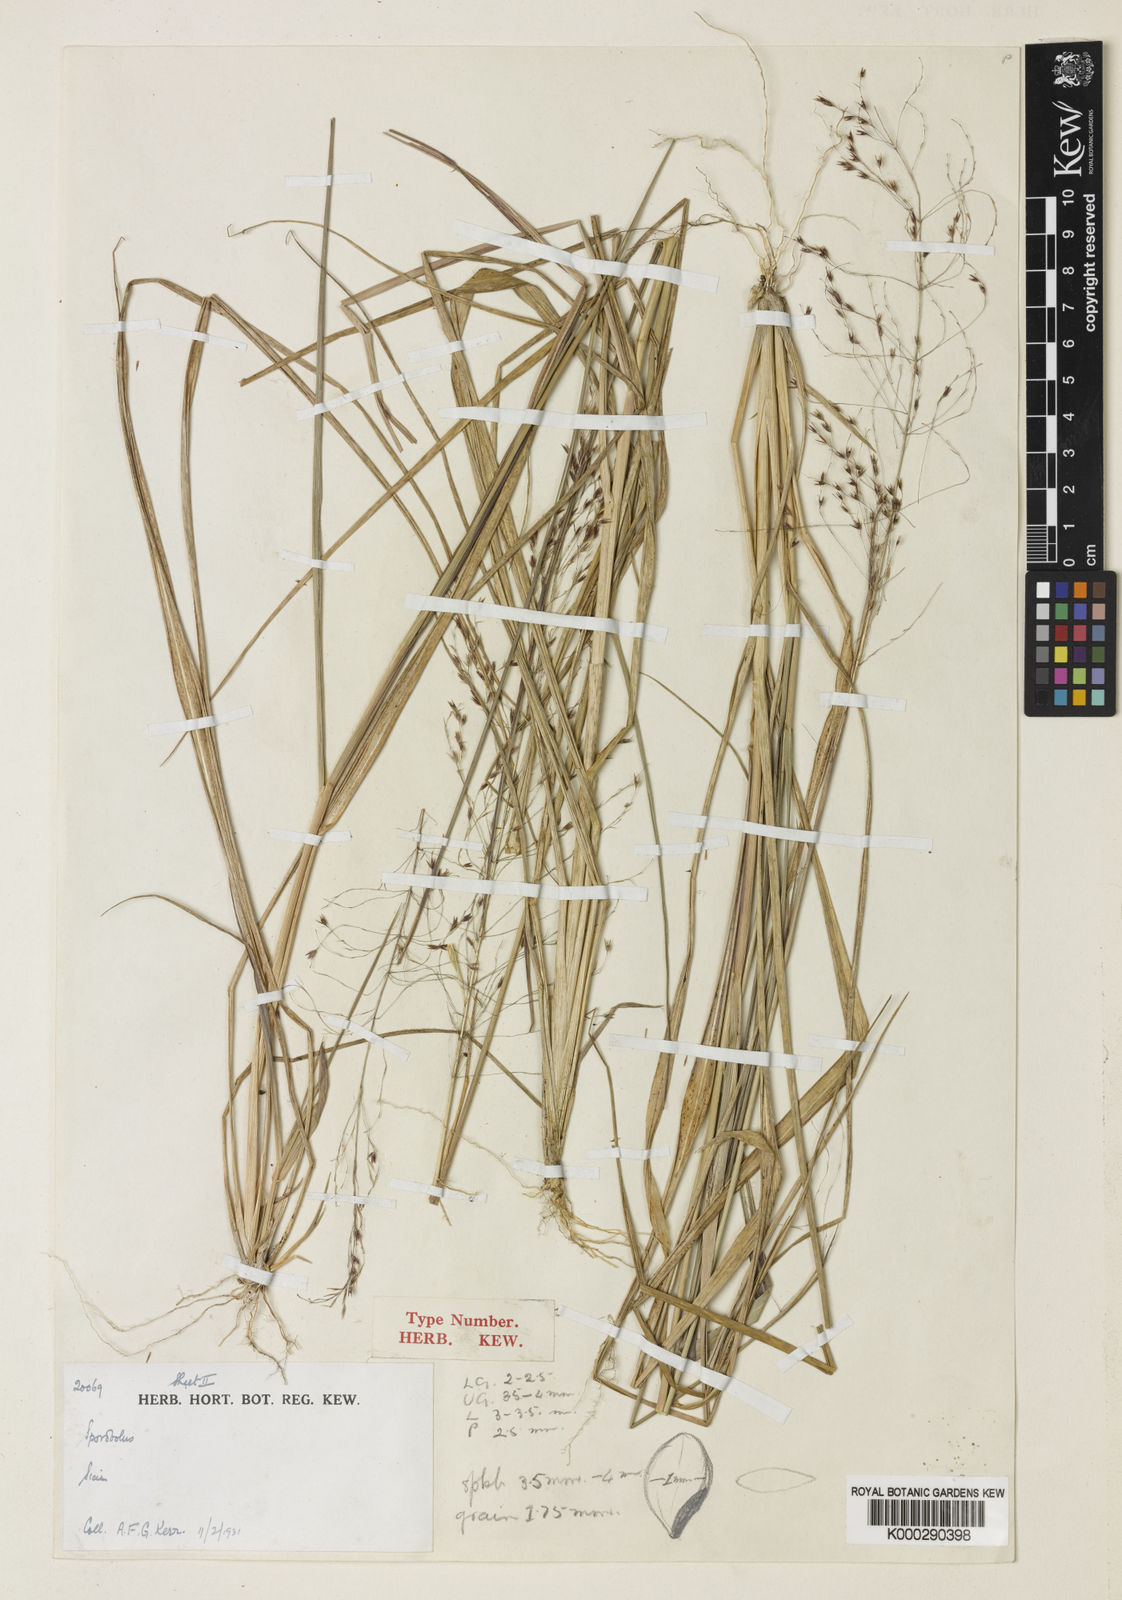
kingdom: Plantae
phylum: Tracheophyta
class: Liliopsida
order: Poales
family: Poaceae
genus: Sporobolus
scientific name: Sporobolus kerrii
